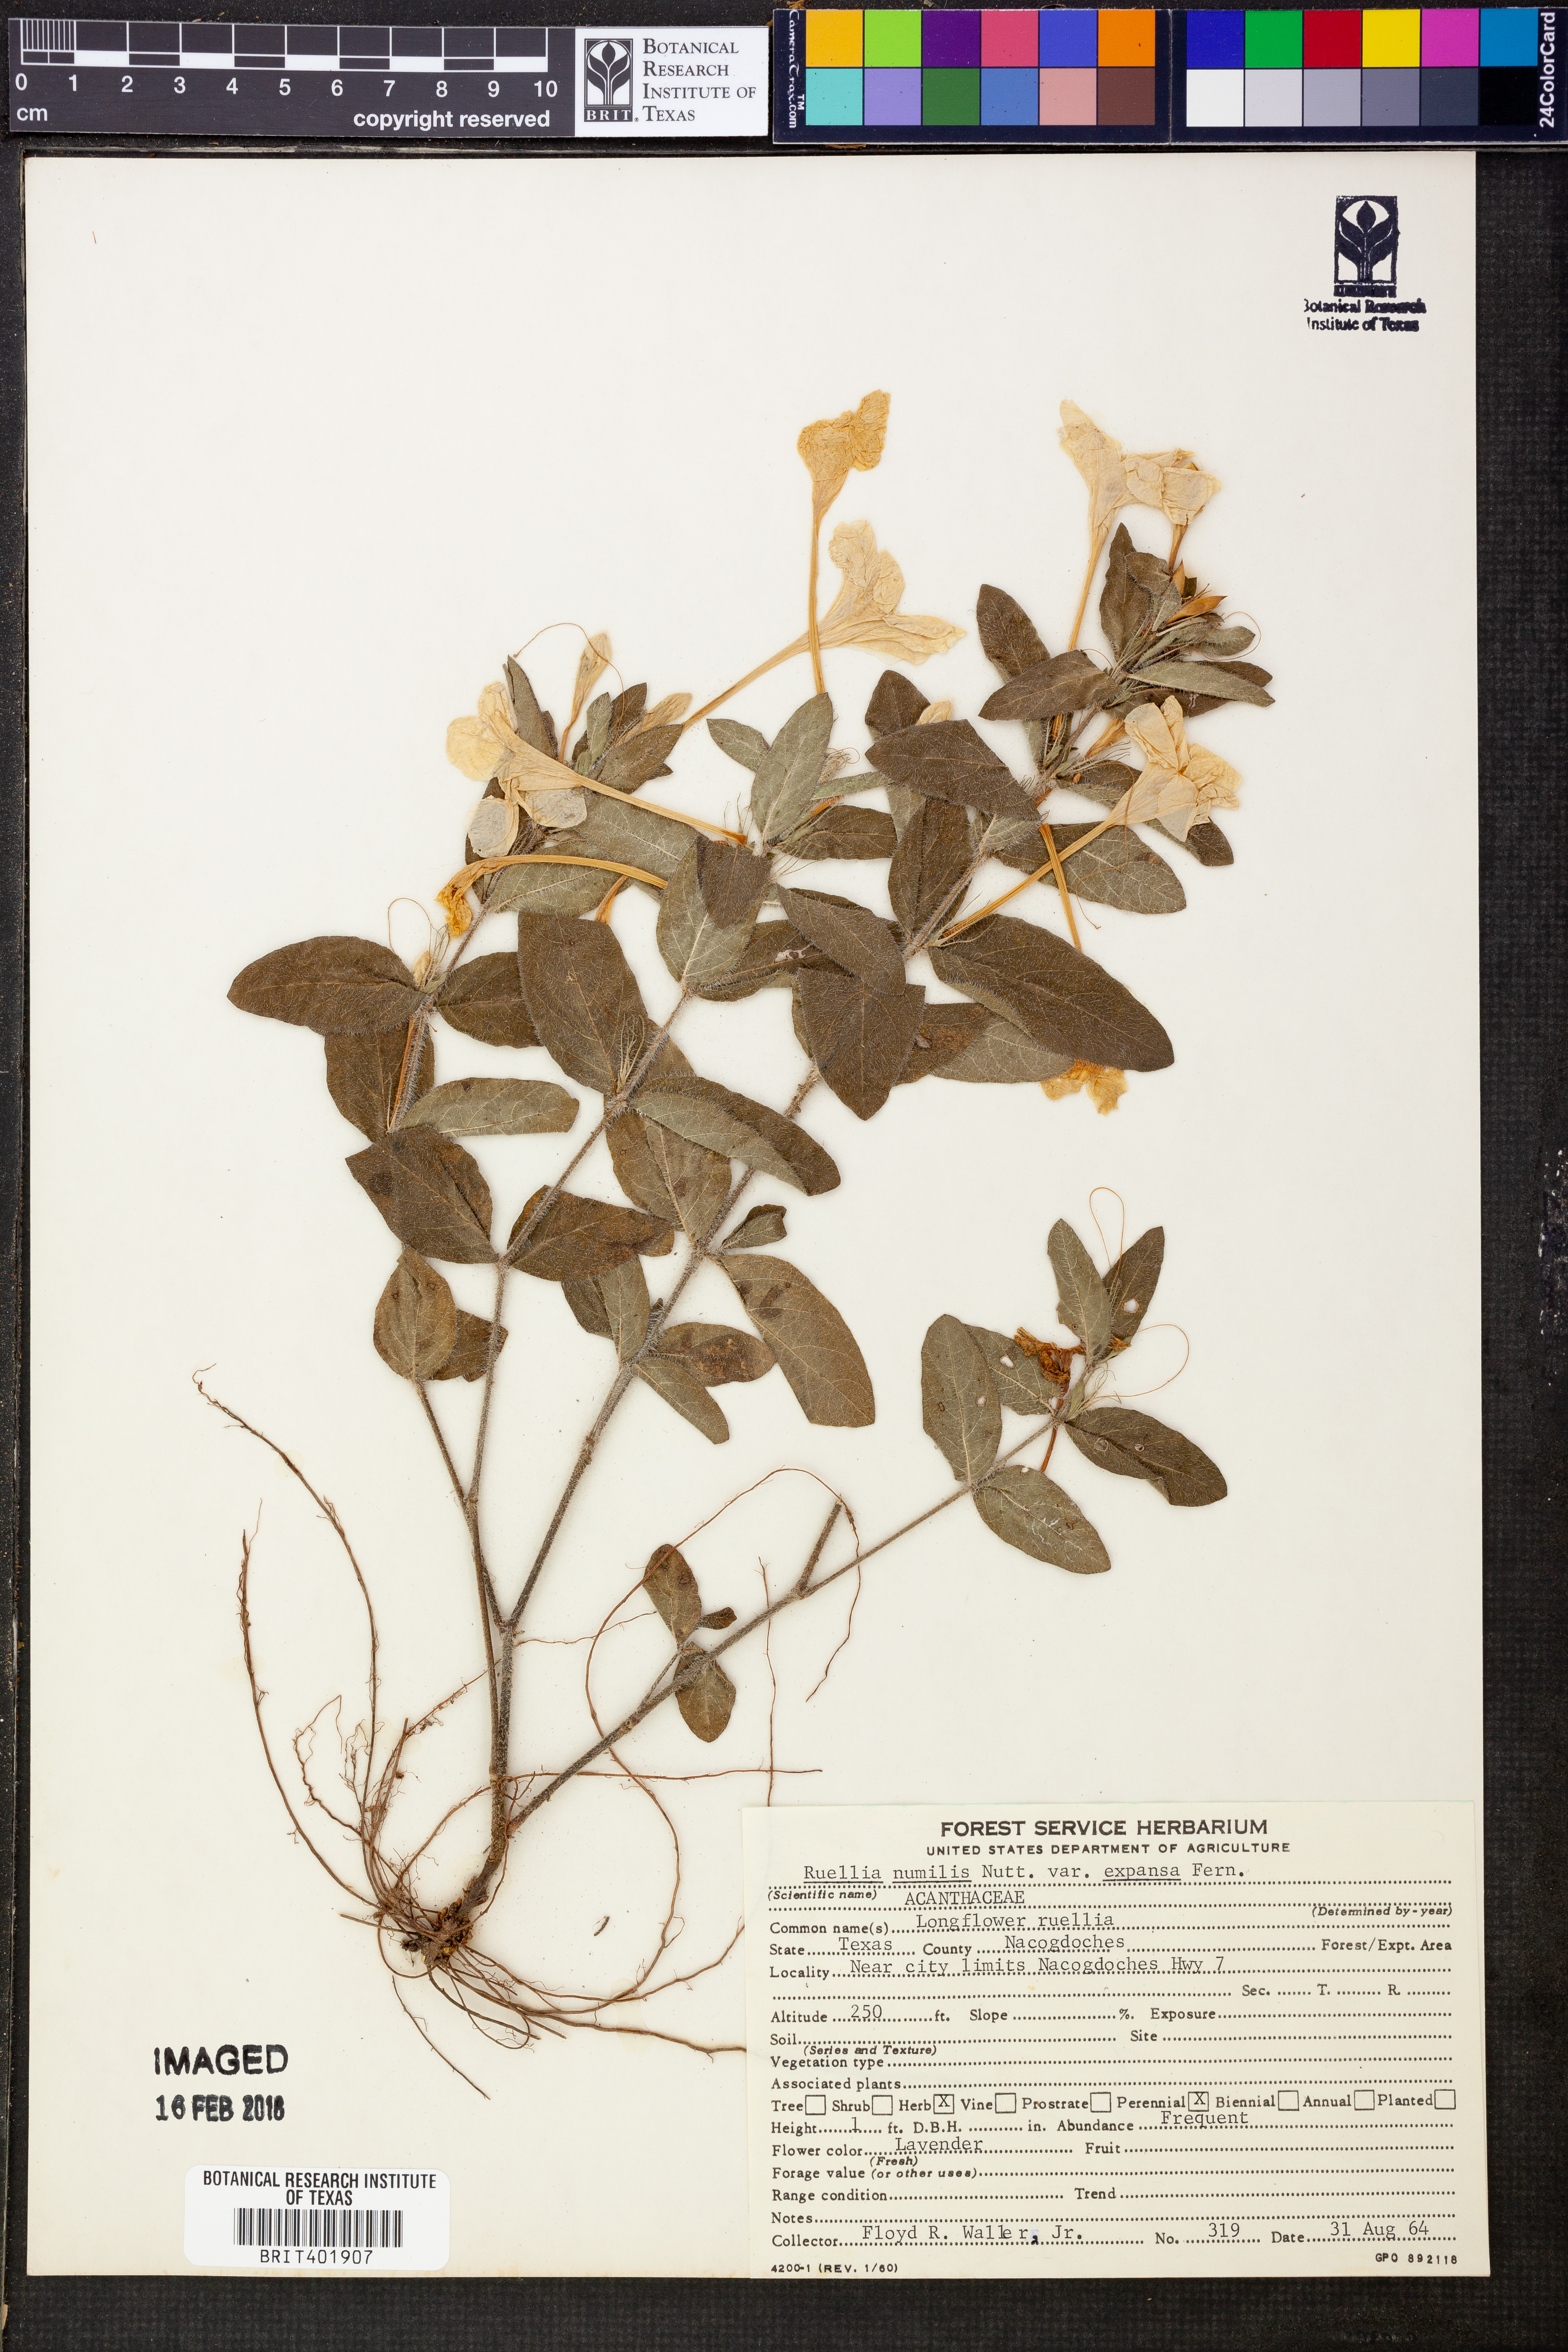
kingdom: Plantae
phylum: Tracheophyta
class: Magnoliopsida
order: Lamiales
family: Acanthaceae
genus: Ruellia
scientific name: Ruellia humilis
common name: Fringe-leaf ruellia
